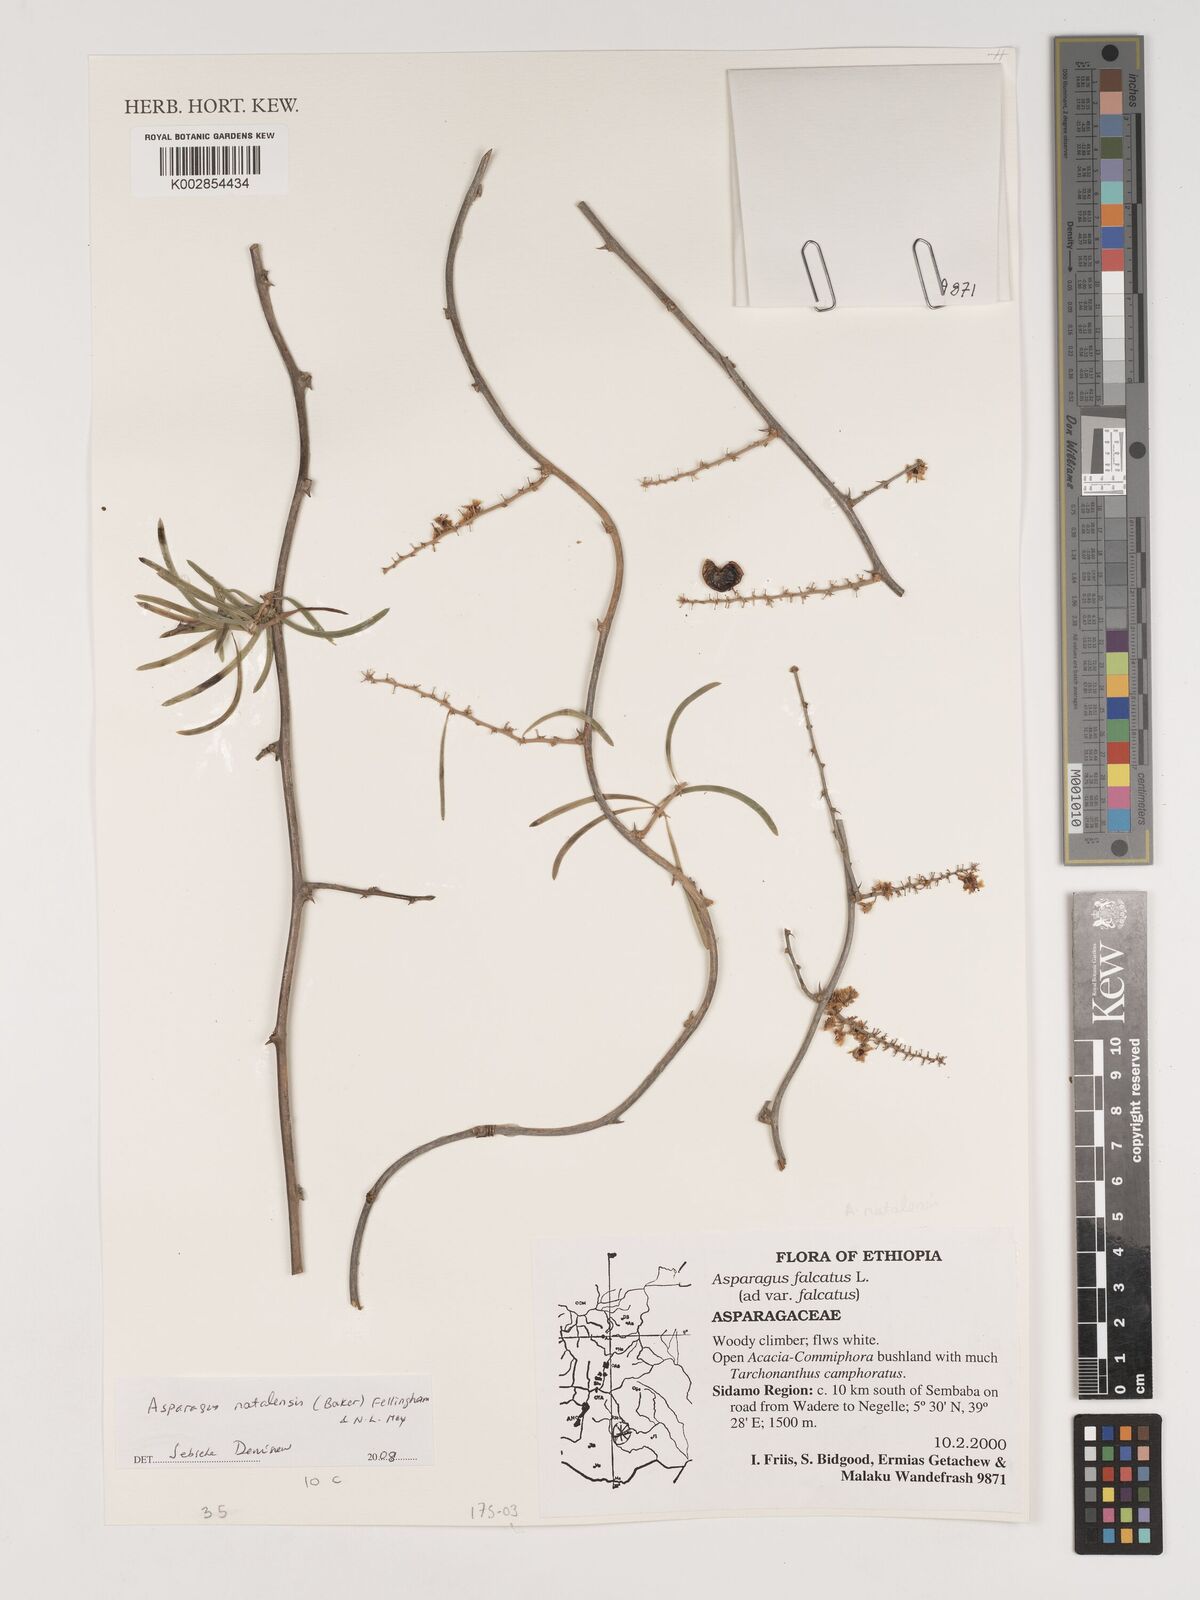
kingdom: Plantae
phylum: Tracheophyta
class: Liliopsida
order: Asparagales
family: Asparagaceae
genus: Asparagus
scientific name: Asparagus natalensis
